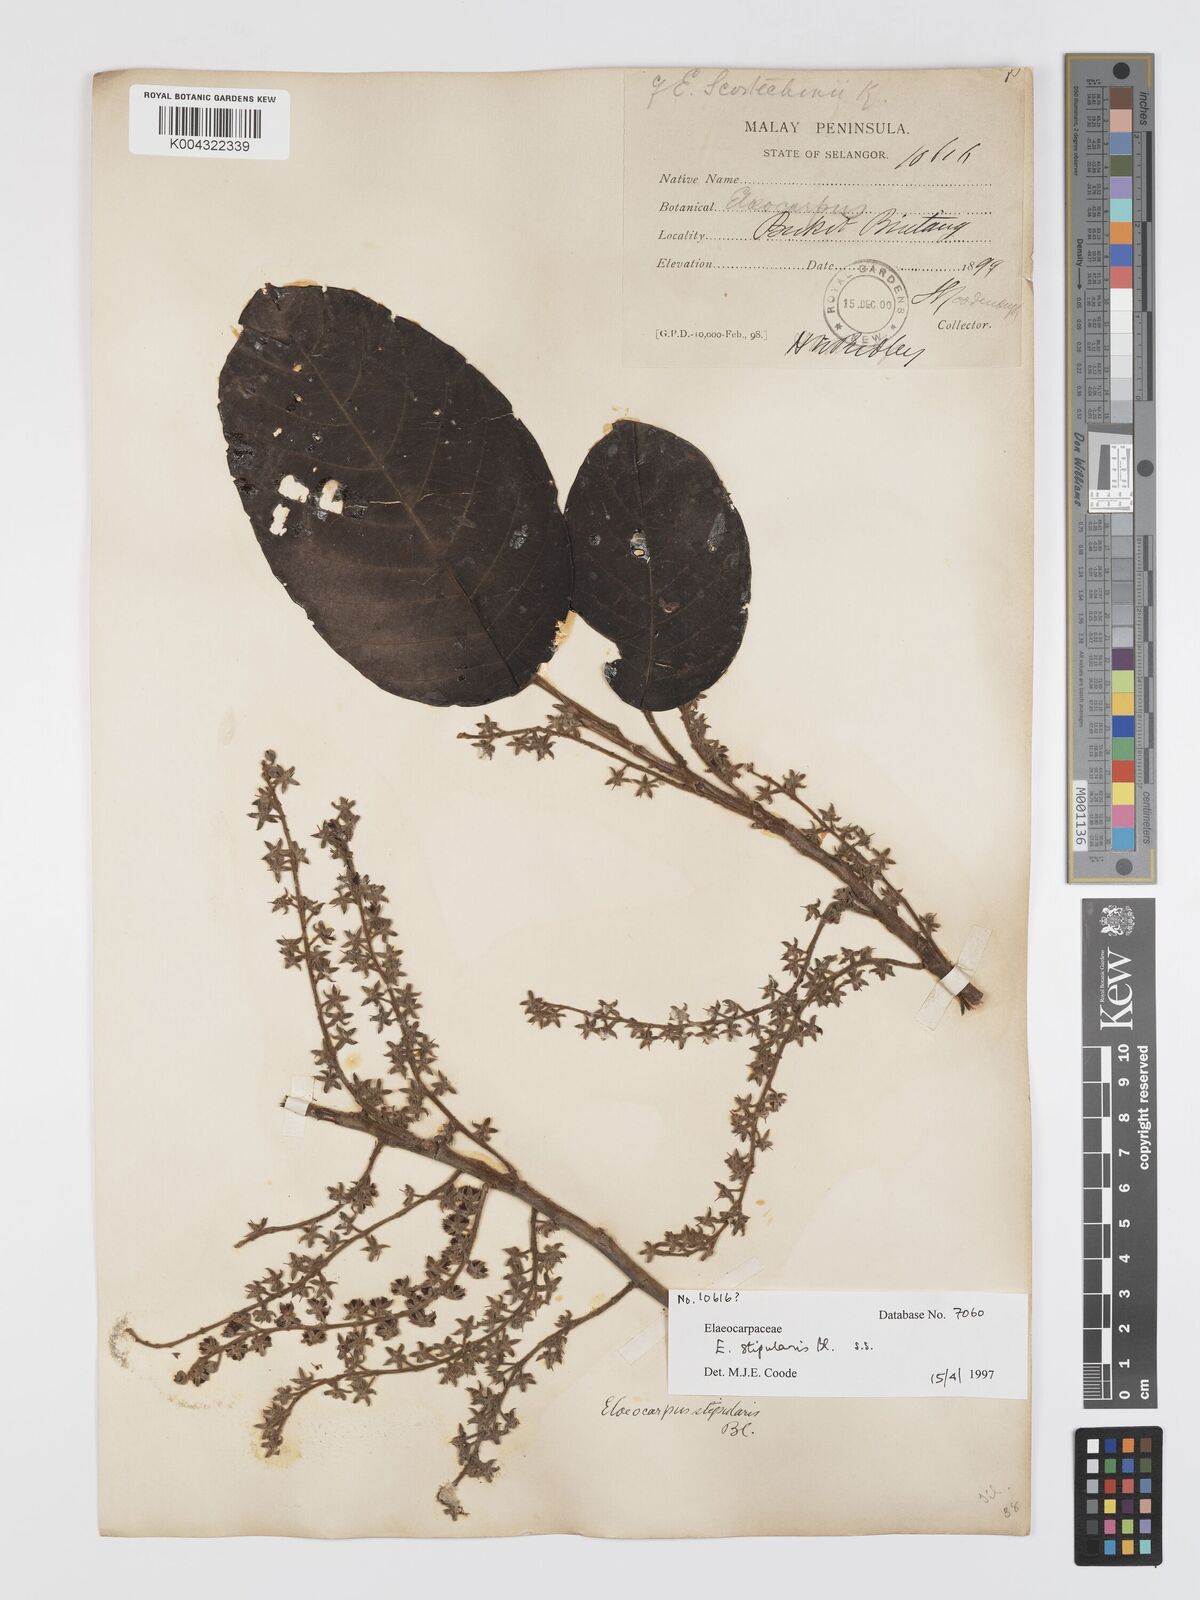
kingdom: Plantae
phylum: Tracheophyta
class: Magnoliopsida
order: Oxalidales
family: Elaeocarpaceae
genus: Elaeocarpus
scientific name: Elaeocarpus stipularis
